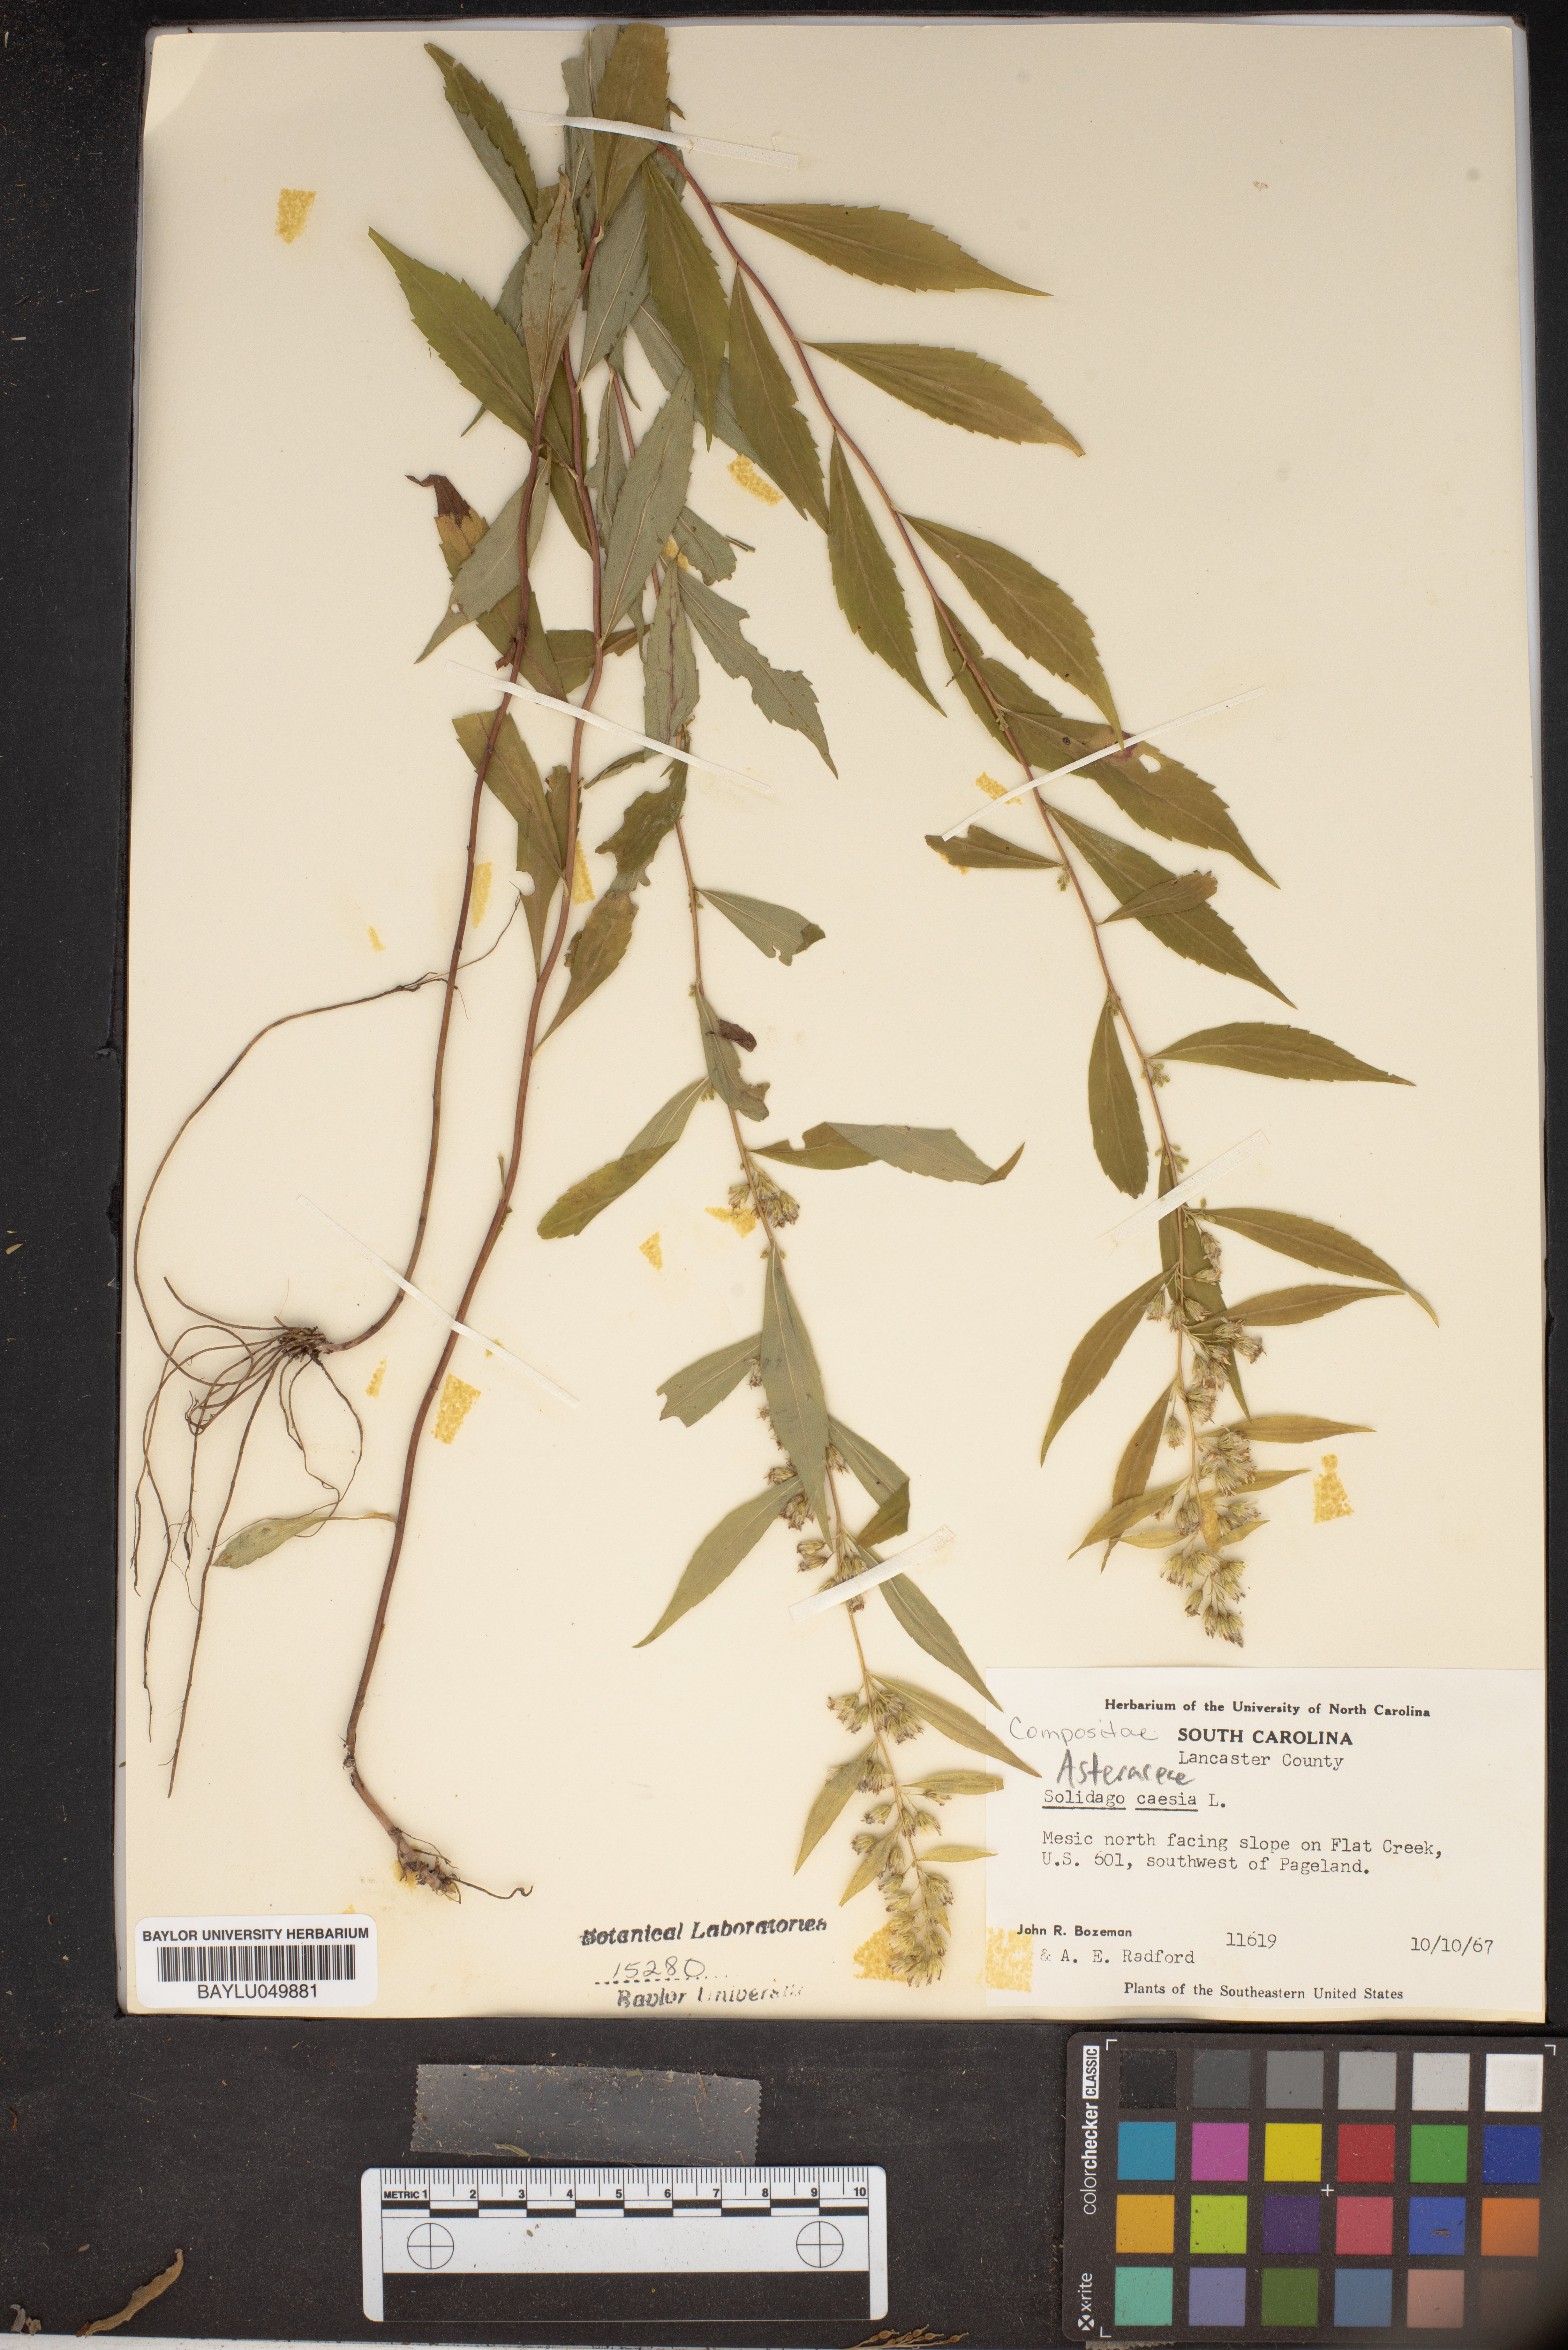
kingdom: Plantae
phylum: Tracheophyta
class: Magnoliopsida
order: Asterales
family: Asteraceae
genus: Solidago
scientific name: Solidago caesia
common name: Woodland goldenrod
